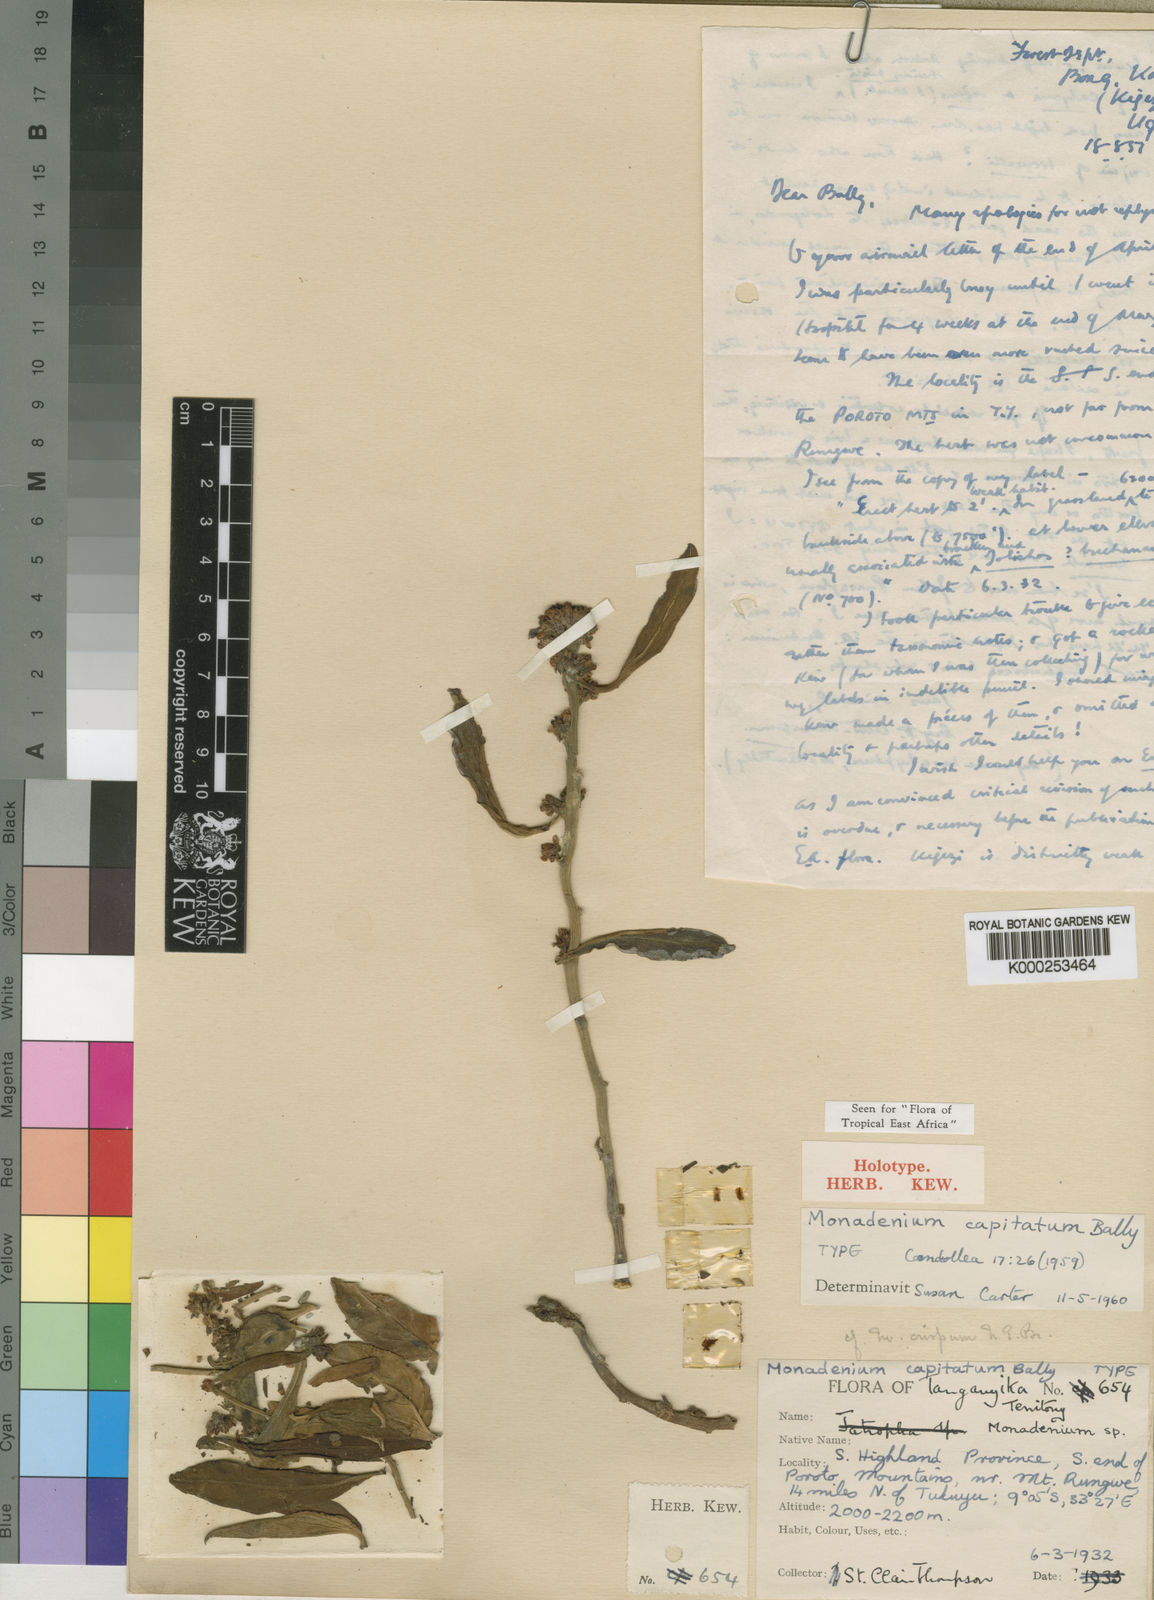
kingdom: Plantae
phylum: Tracheophyta
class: Magnoliopsida
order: Malpighiales
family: Euphorbiaceae
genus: Euphorbia
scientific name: Euphorbia neocapitata
